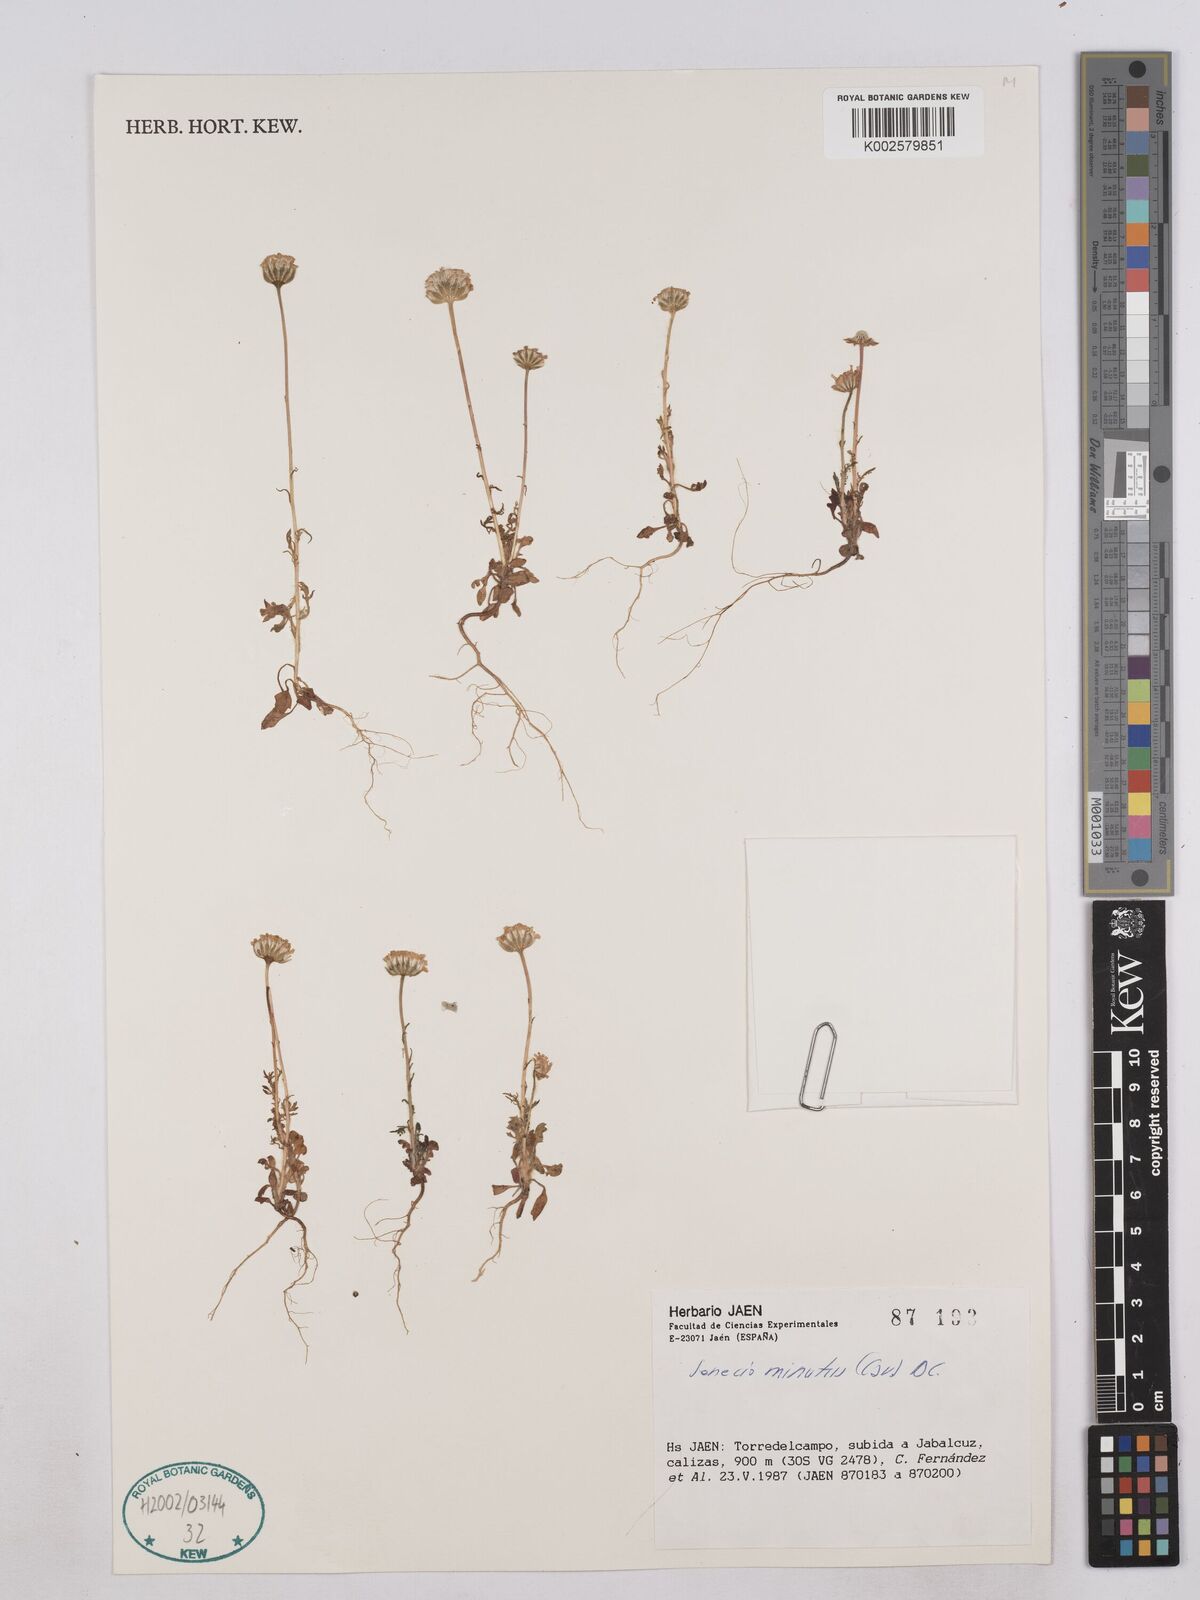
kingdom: Plantae
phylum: Tracheophyta
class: Magnoliopsida
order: Asterales
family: Asteraceae
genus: Jacobaea
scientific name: Jacobaea minuta
